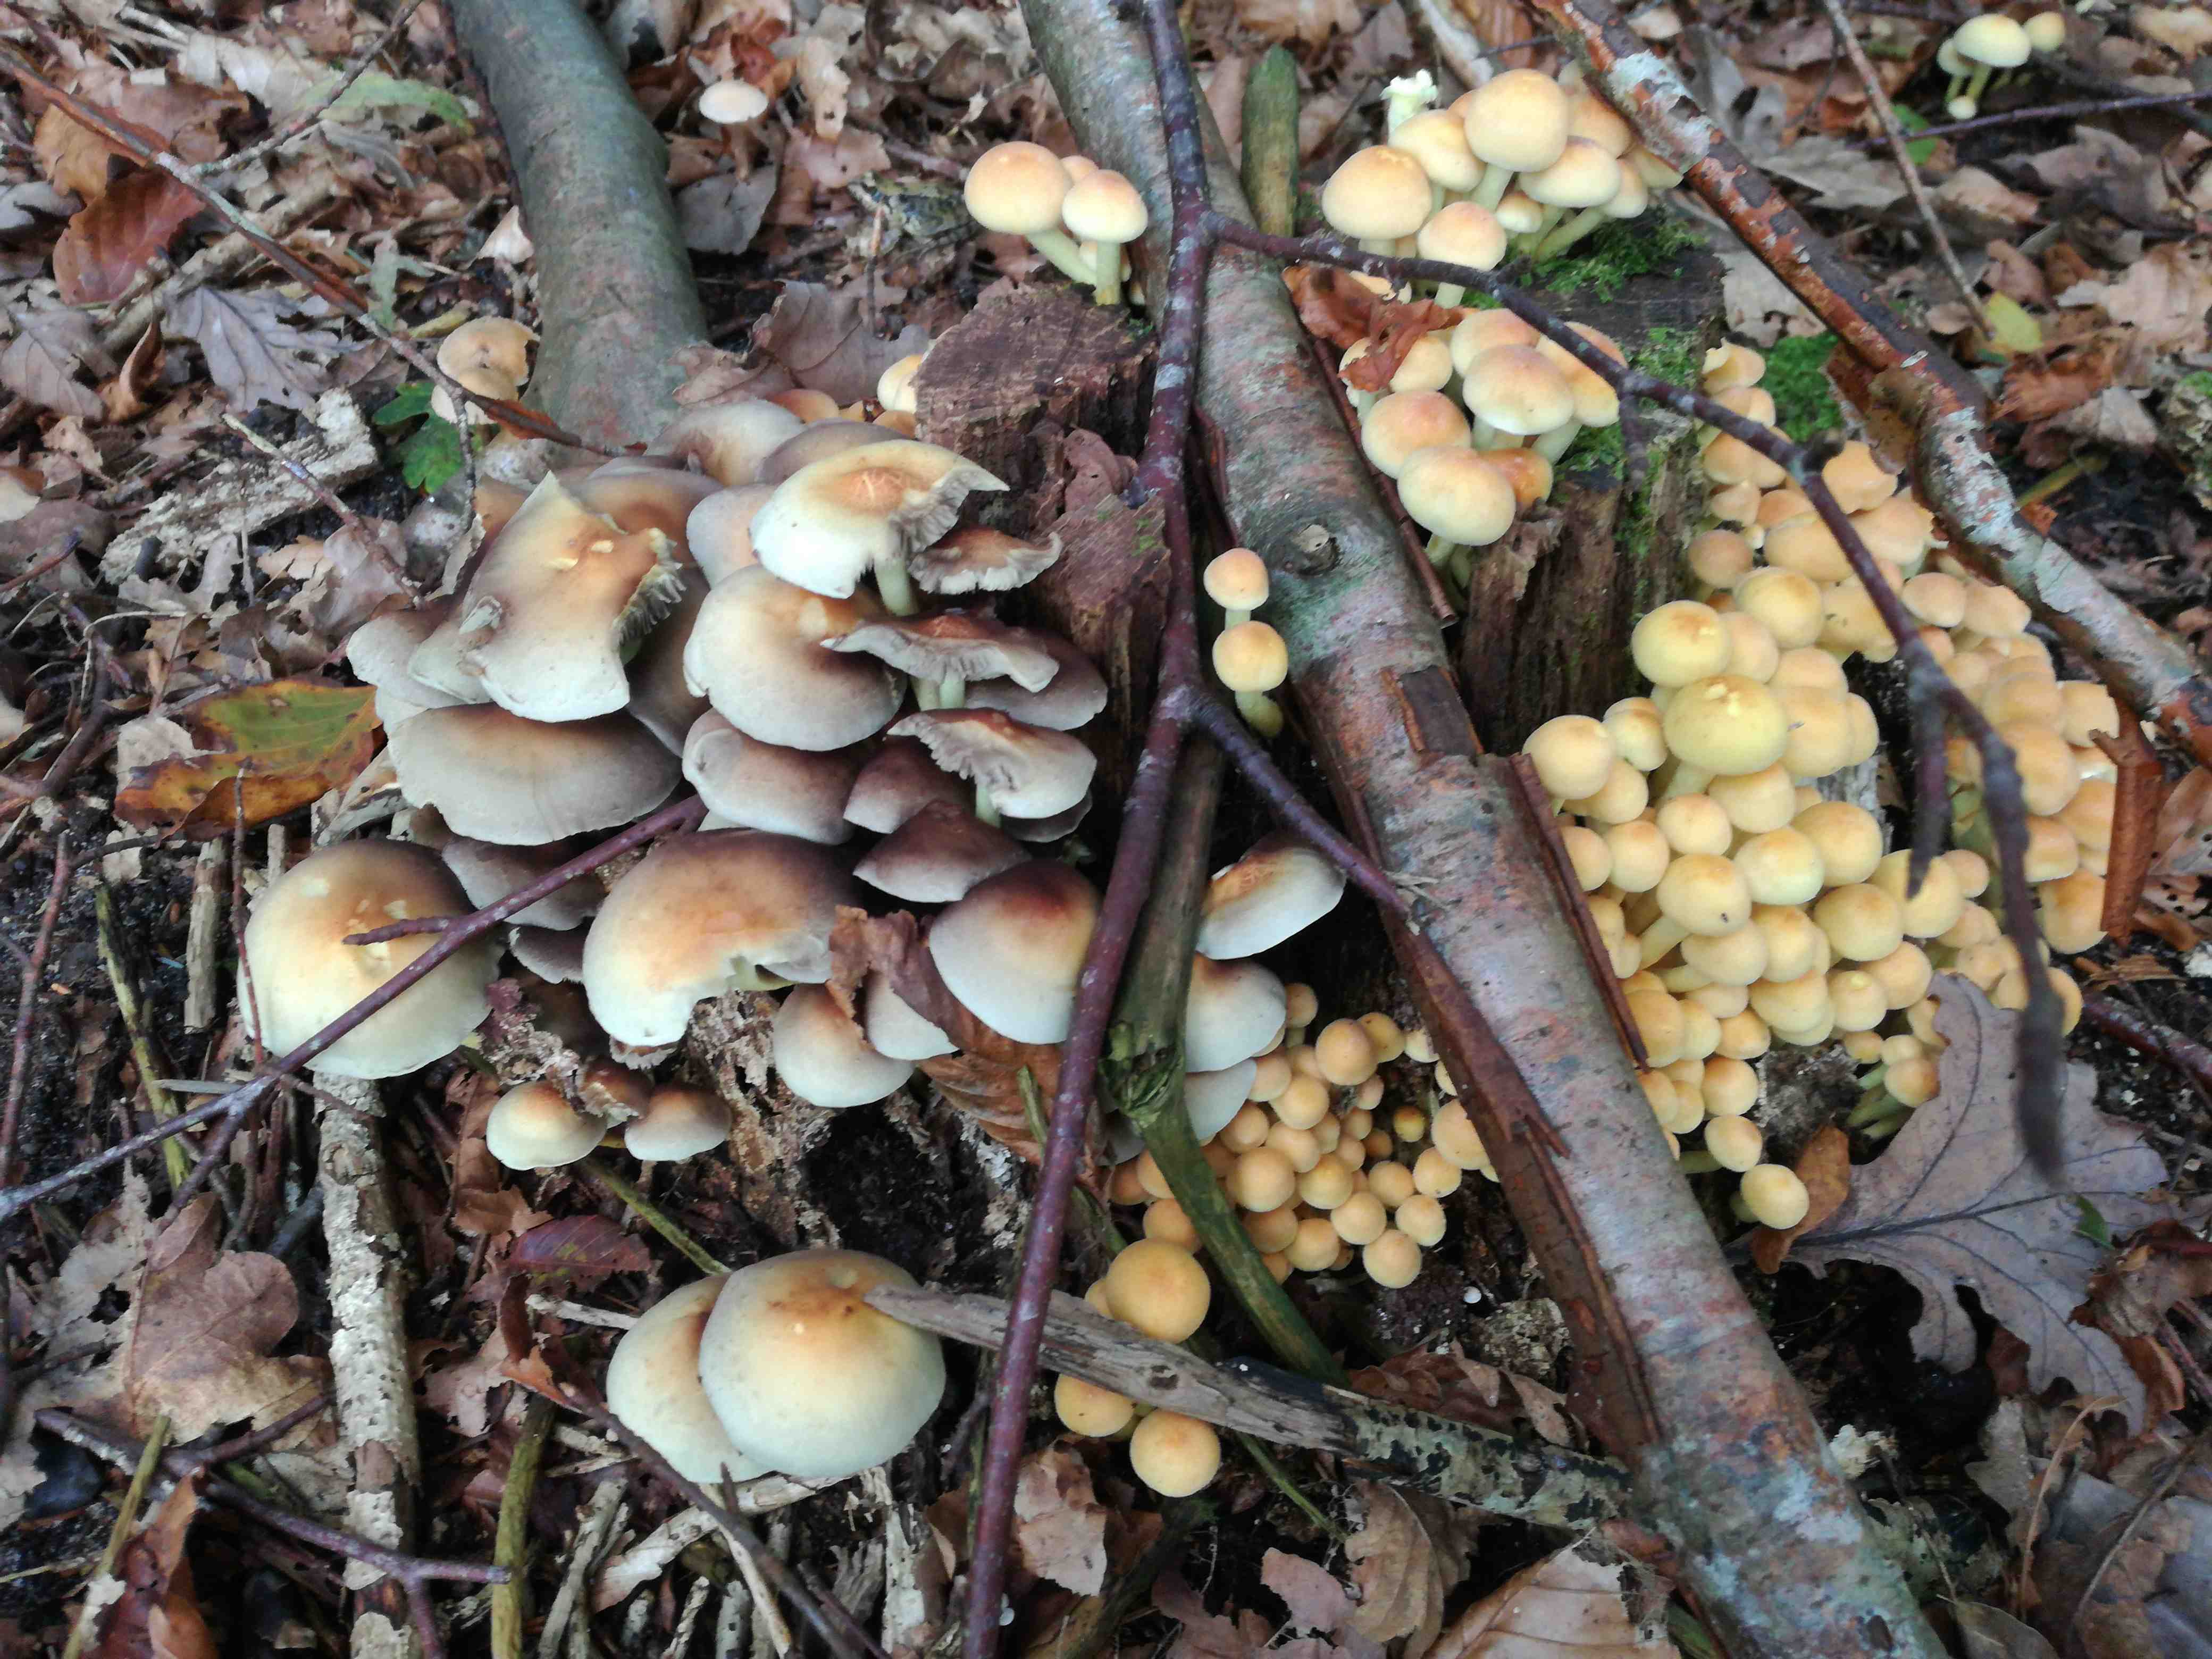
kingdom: Fungi
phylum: Basidiomycota
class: Agaricomycetes
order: Agaricales
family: Strophariaceae
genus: Hypholoma
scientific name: Hypholoma fasciculare
